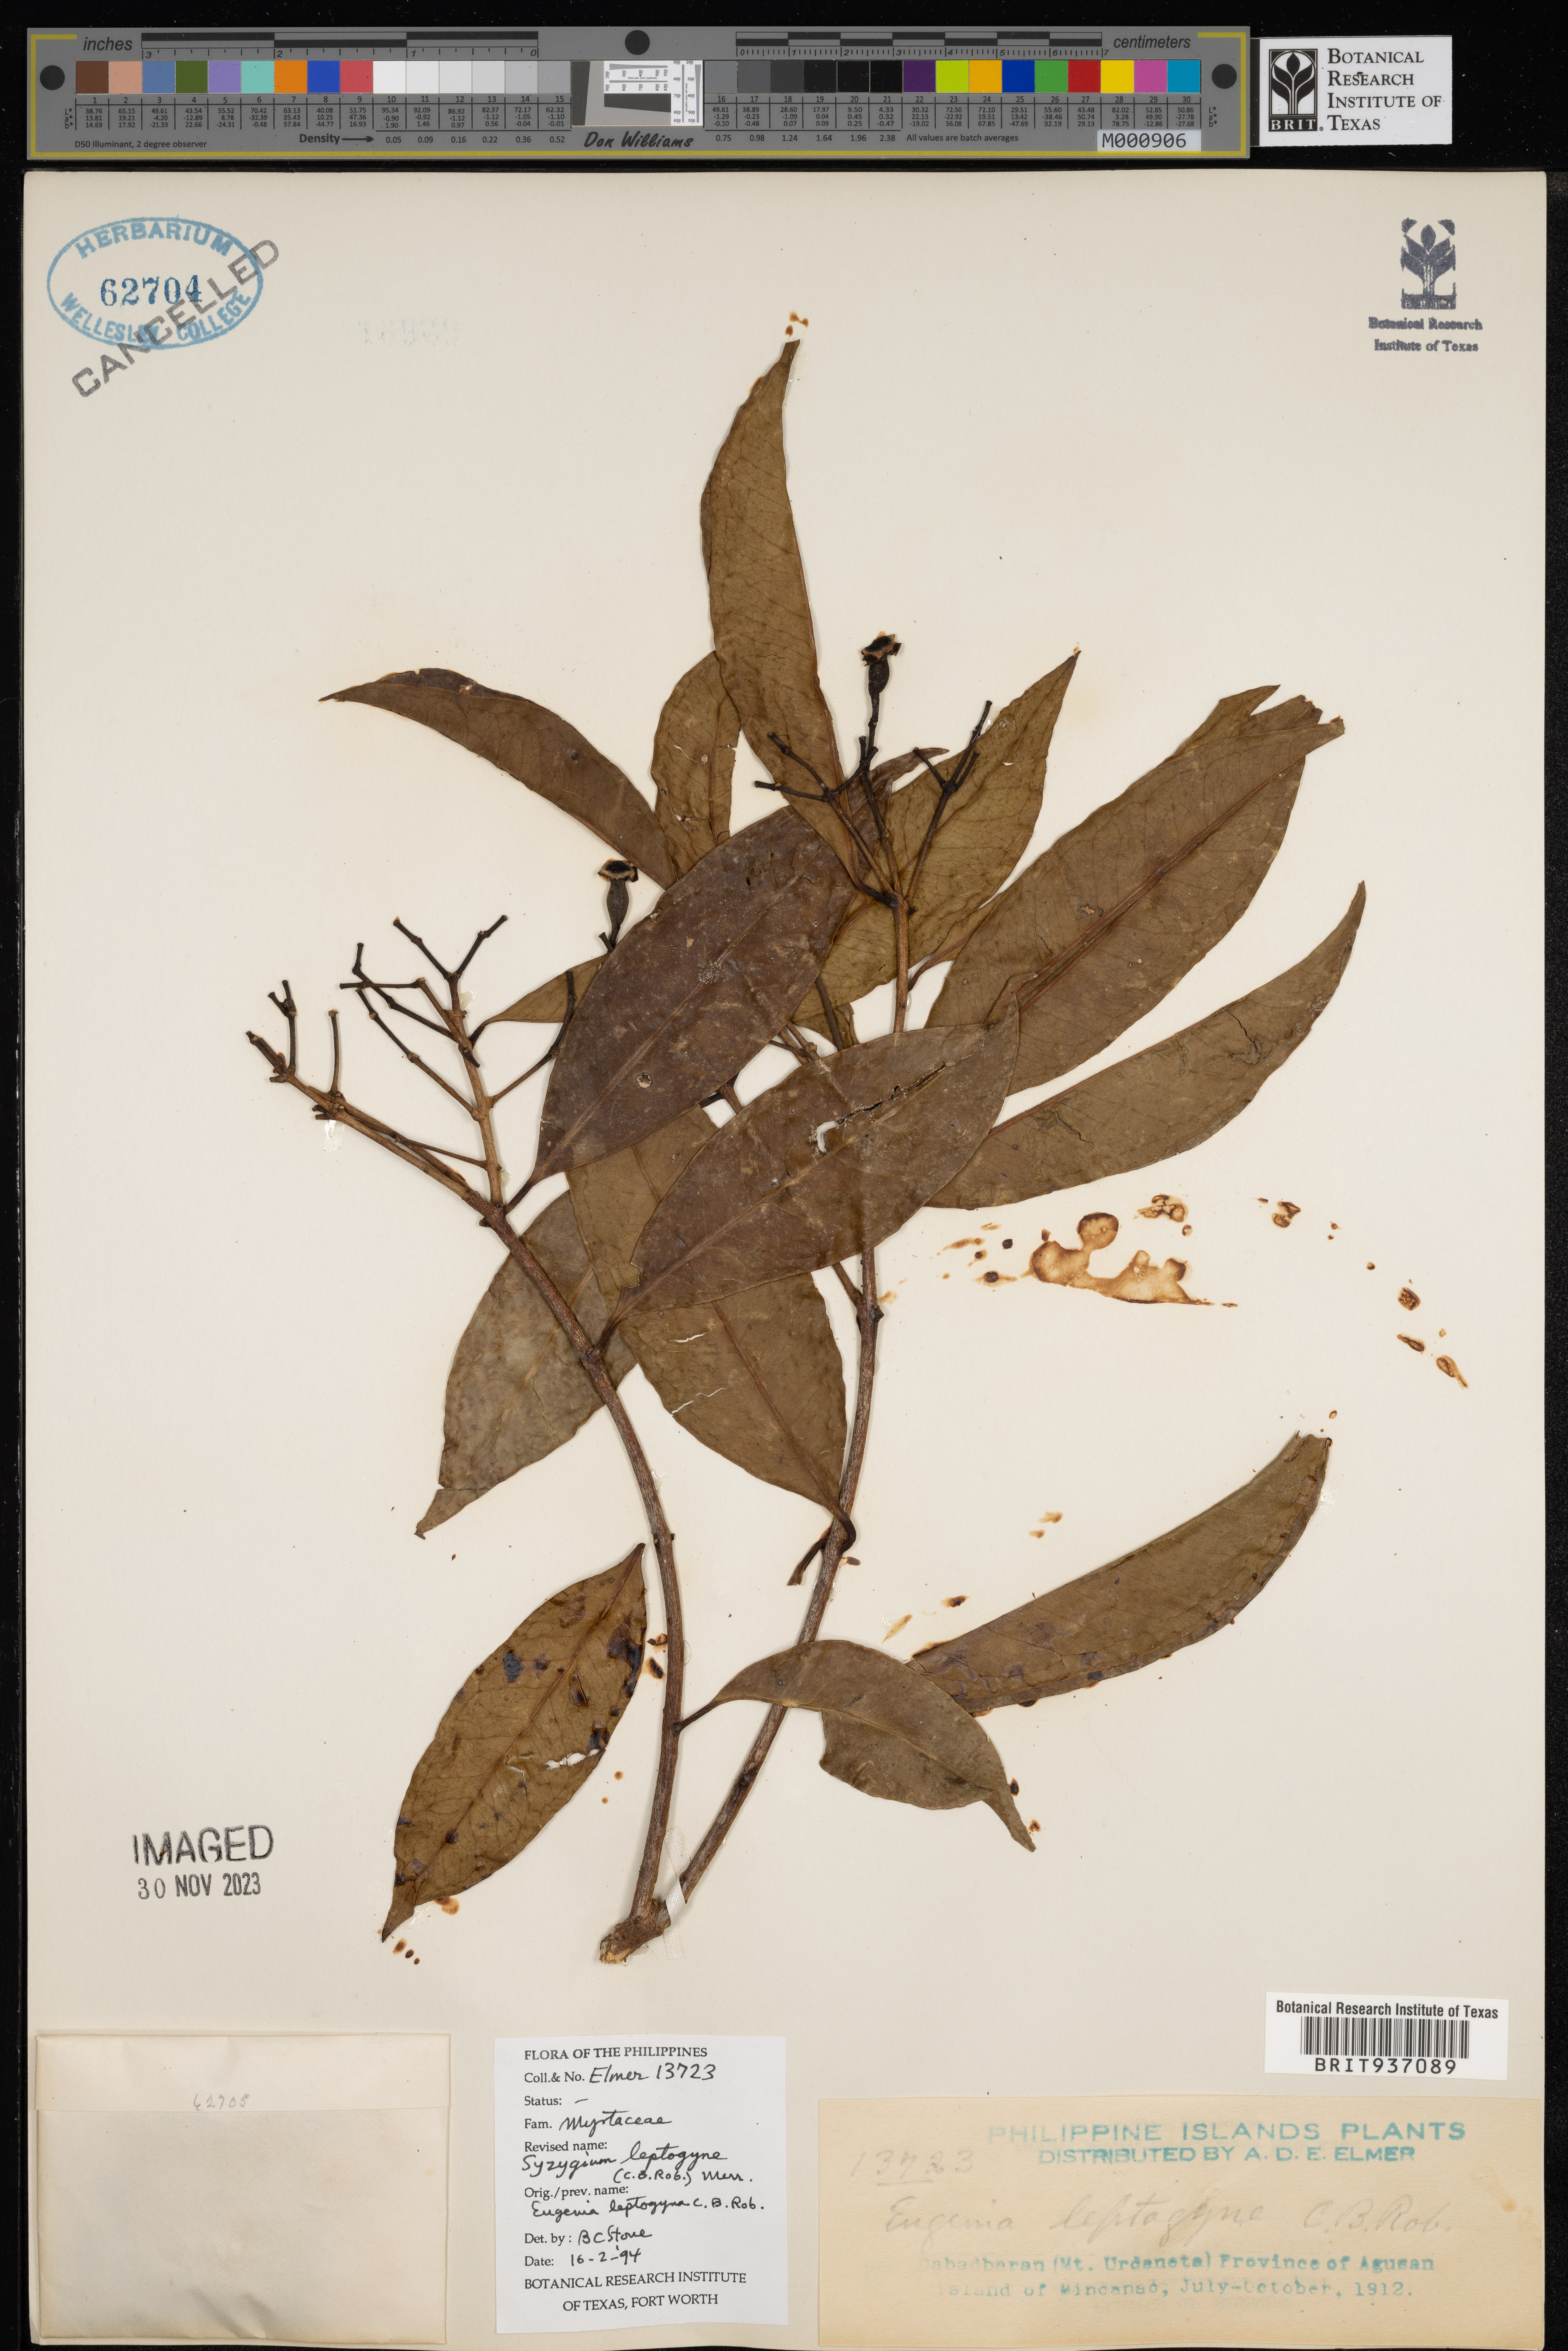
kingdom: Plantae
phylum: Tracheophyta
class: Magnoliopsida
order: Myrtales
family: Myrtaceae
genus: Syzygium
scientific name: Syzygium
